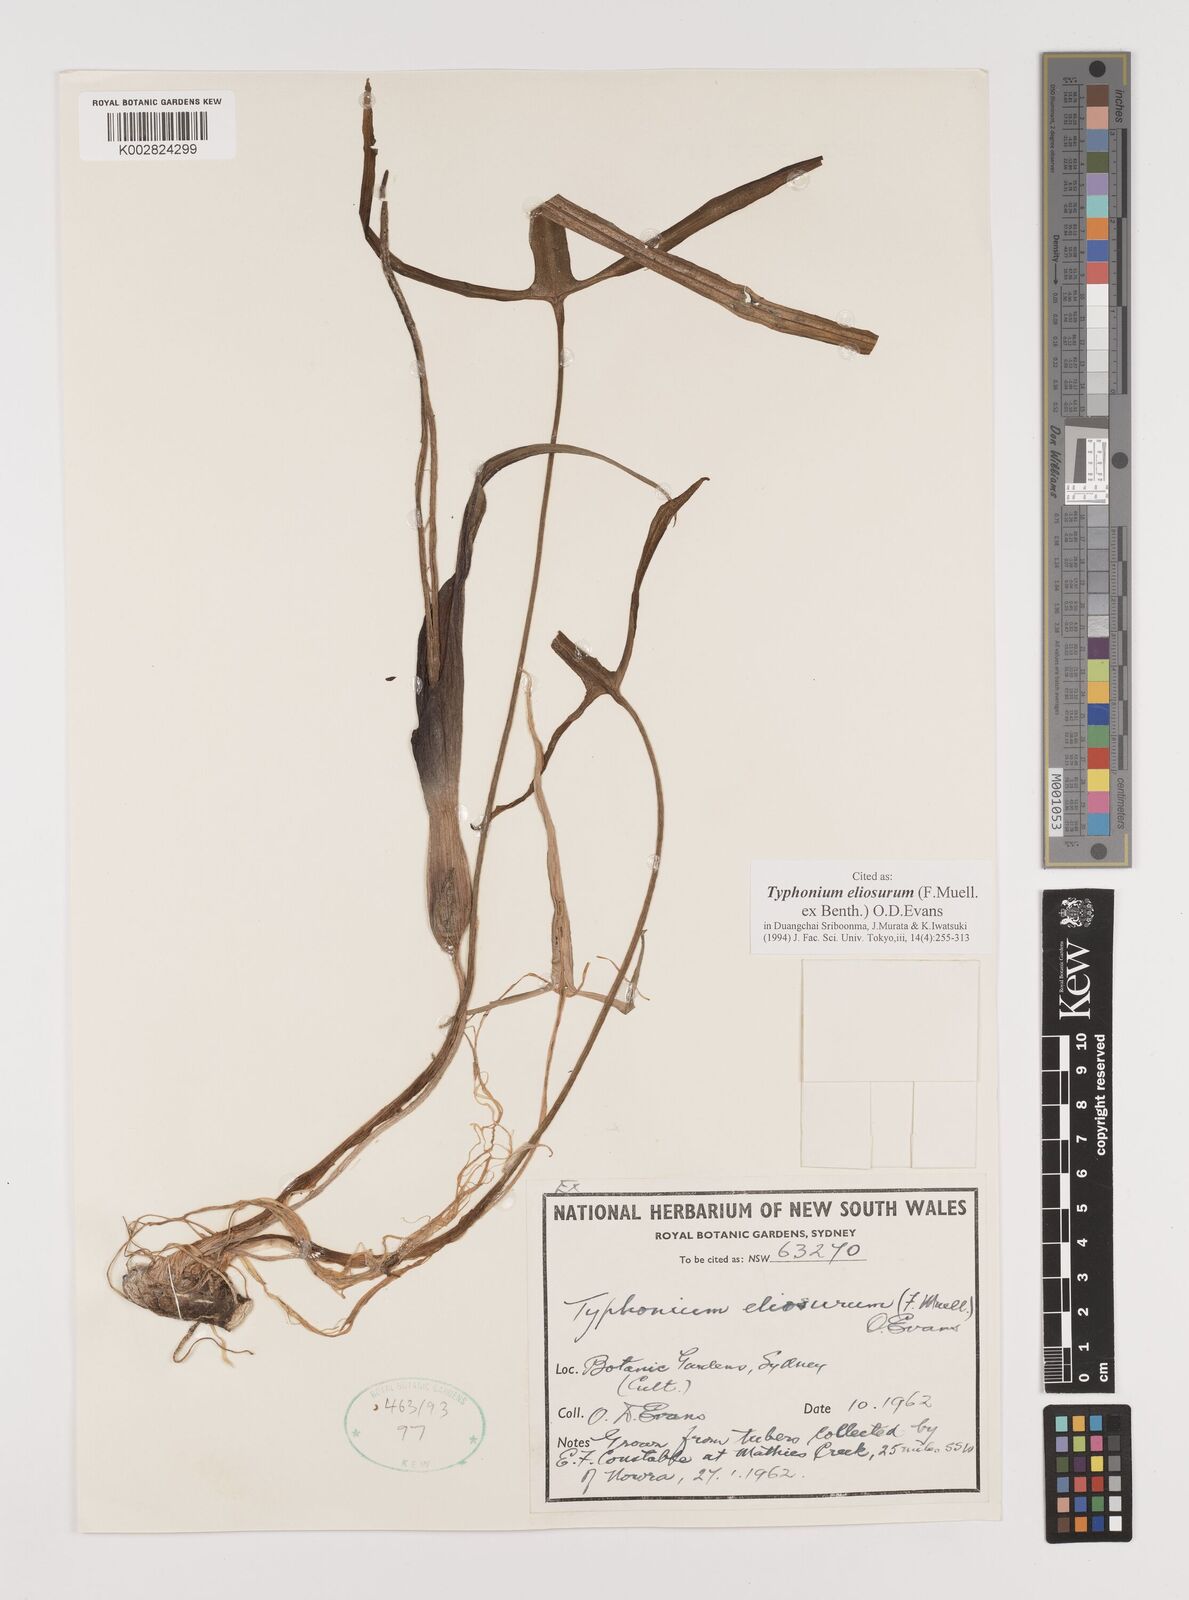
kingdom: Plantae
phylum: Tracheophyta
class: Liliopsida
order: Alismatales
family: Araceae
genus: Typhonium
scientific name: Typhonium eliosurum
